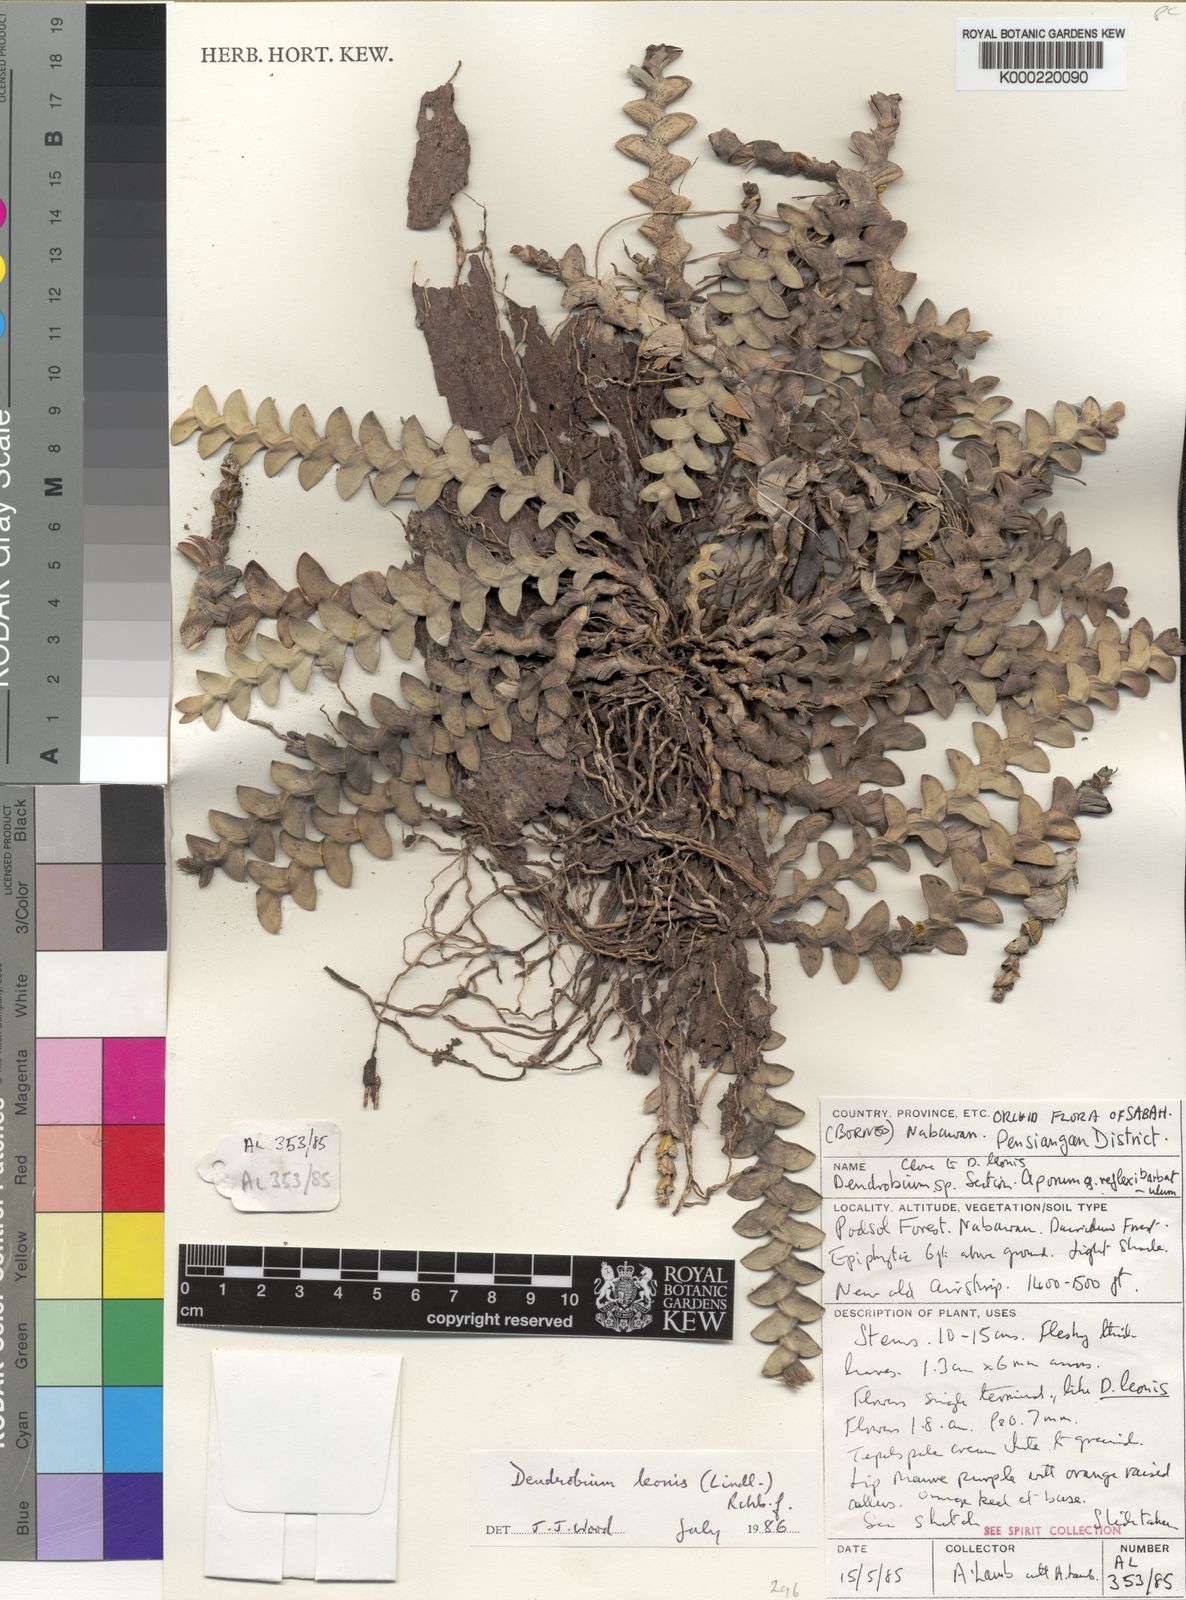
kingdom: Plantae
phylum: Tracheophyta
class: Liliopsida
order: Asparagales
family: Orchidaceae
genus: Dendrobium
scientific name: Dendrobium leonis
